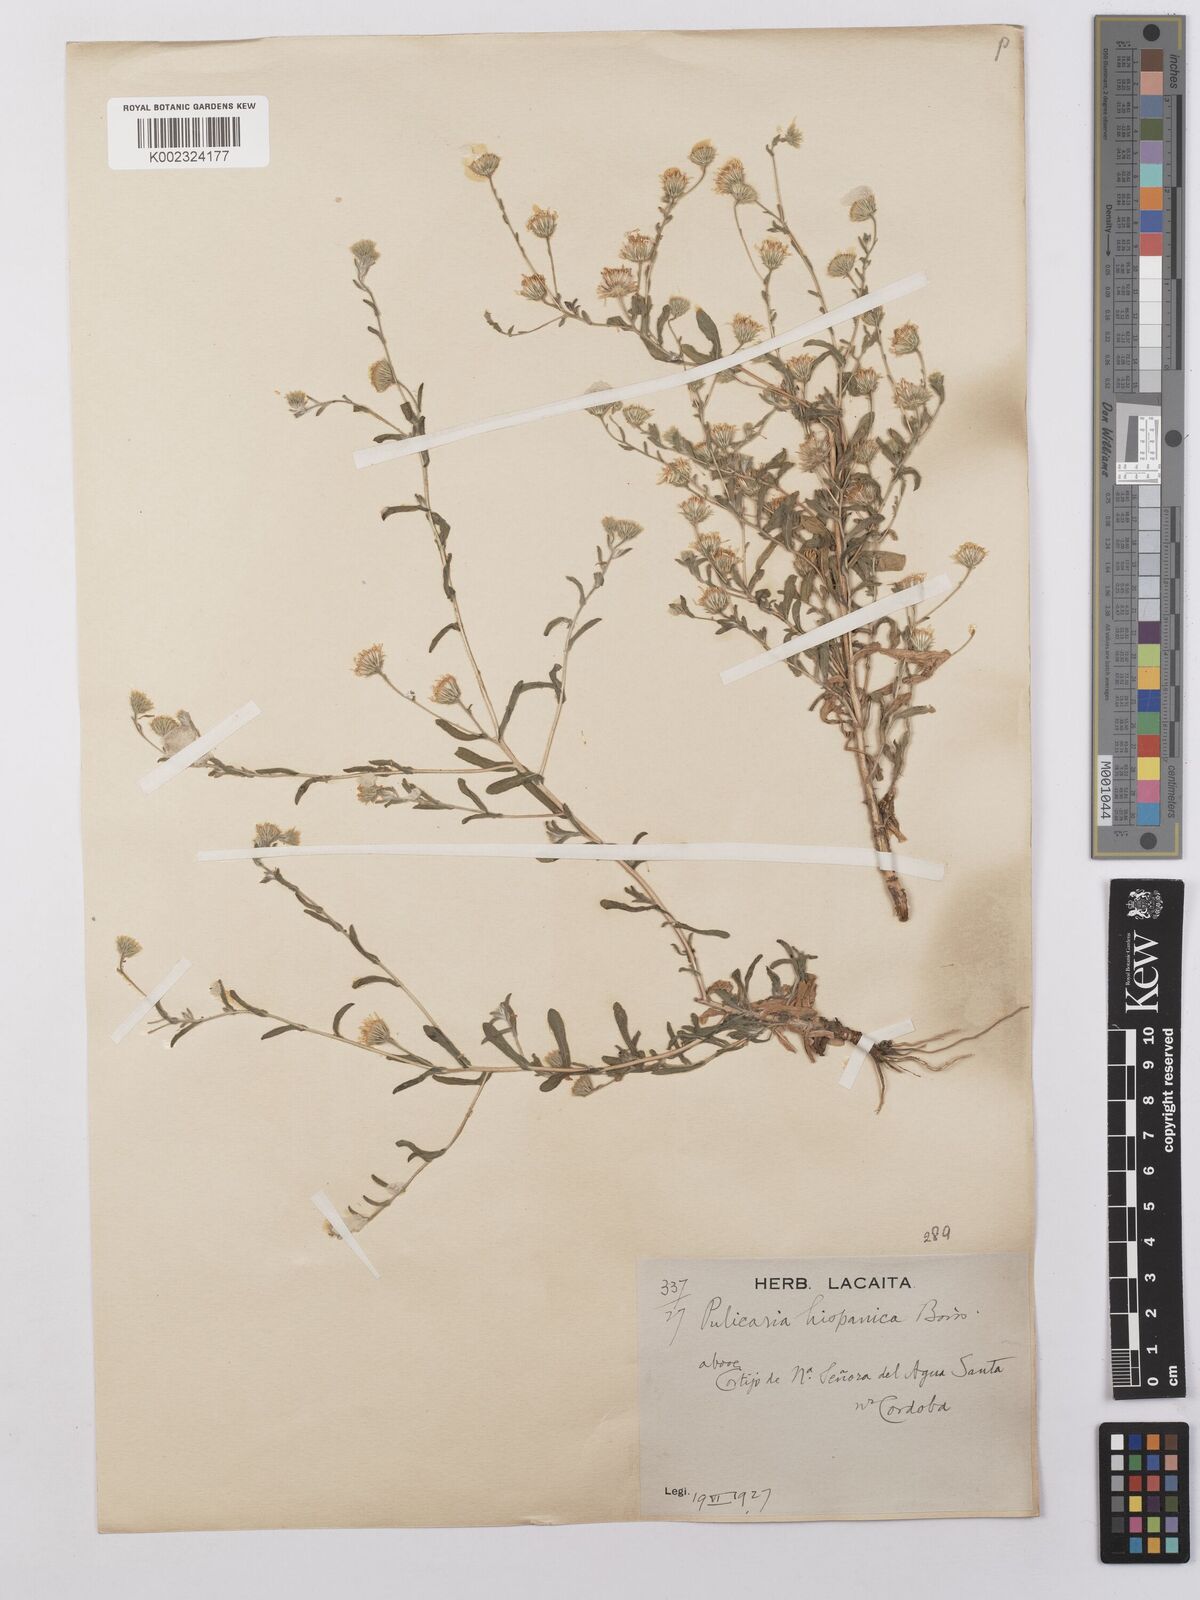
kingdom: Plantae
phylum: Tracheophyta
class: Magnoliopsida
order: Asterales
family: Asteraceae
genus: Pulicaria
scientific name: Pulicaria arabica
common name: Ladies' false fleabane
